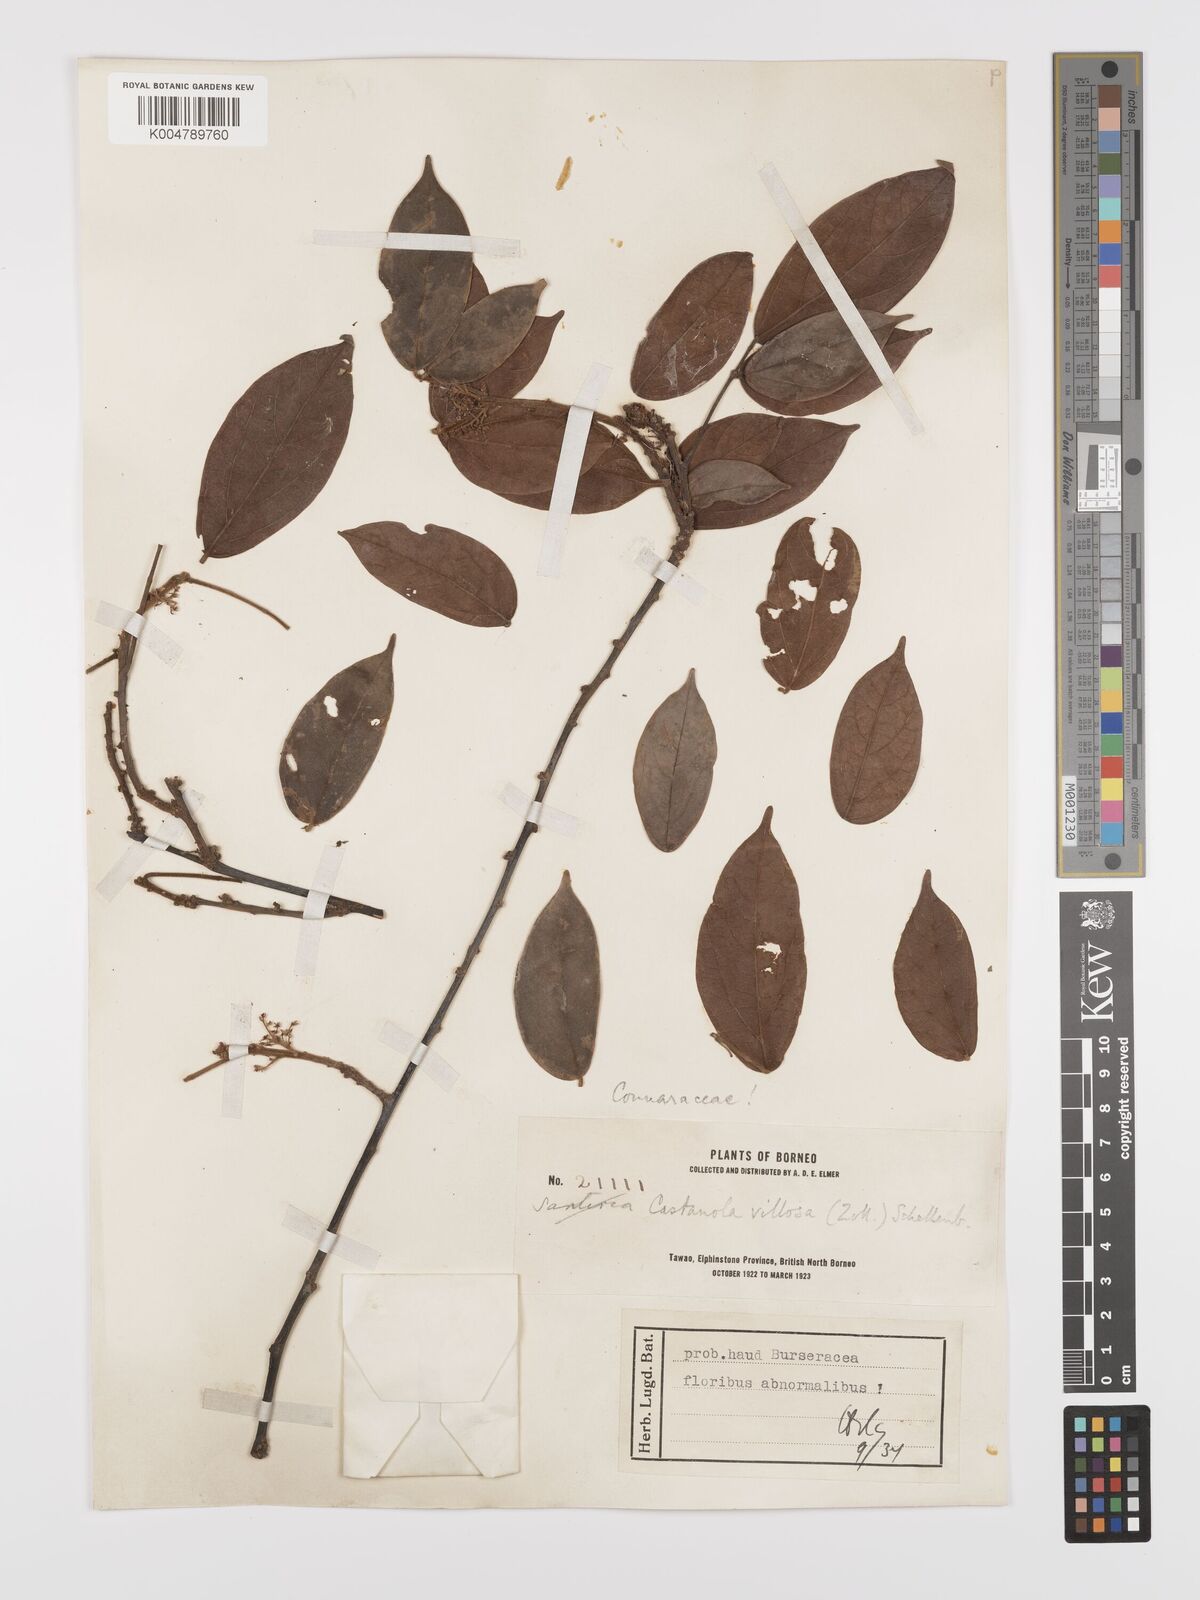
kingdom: Plantae
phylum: Tracheophyta
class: Magnoliopsida
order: Oxalidales
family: Connaraceae
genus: Agelaea
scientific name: Agelaea borneensis
